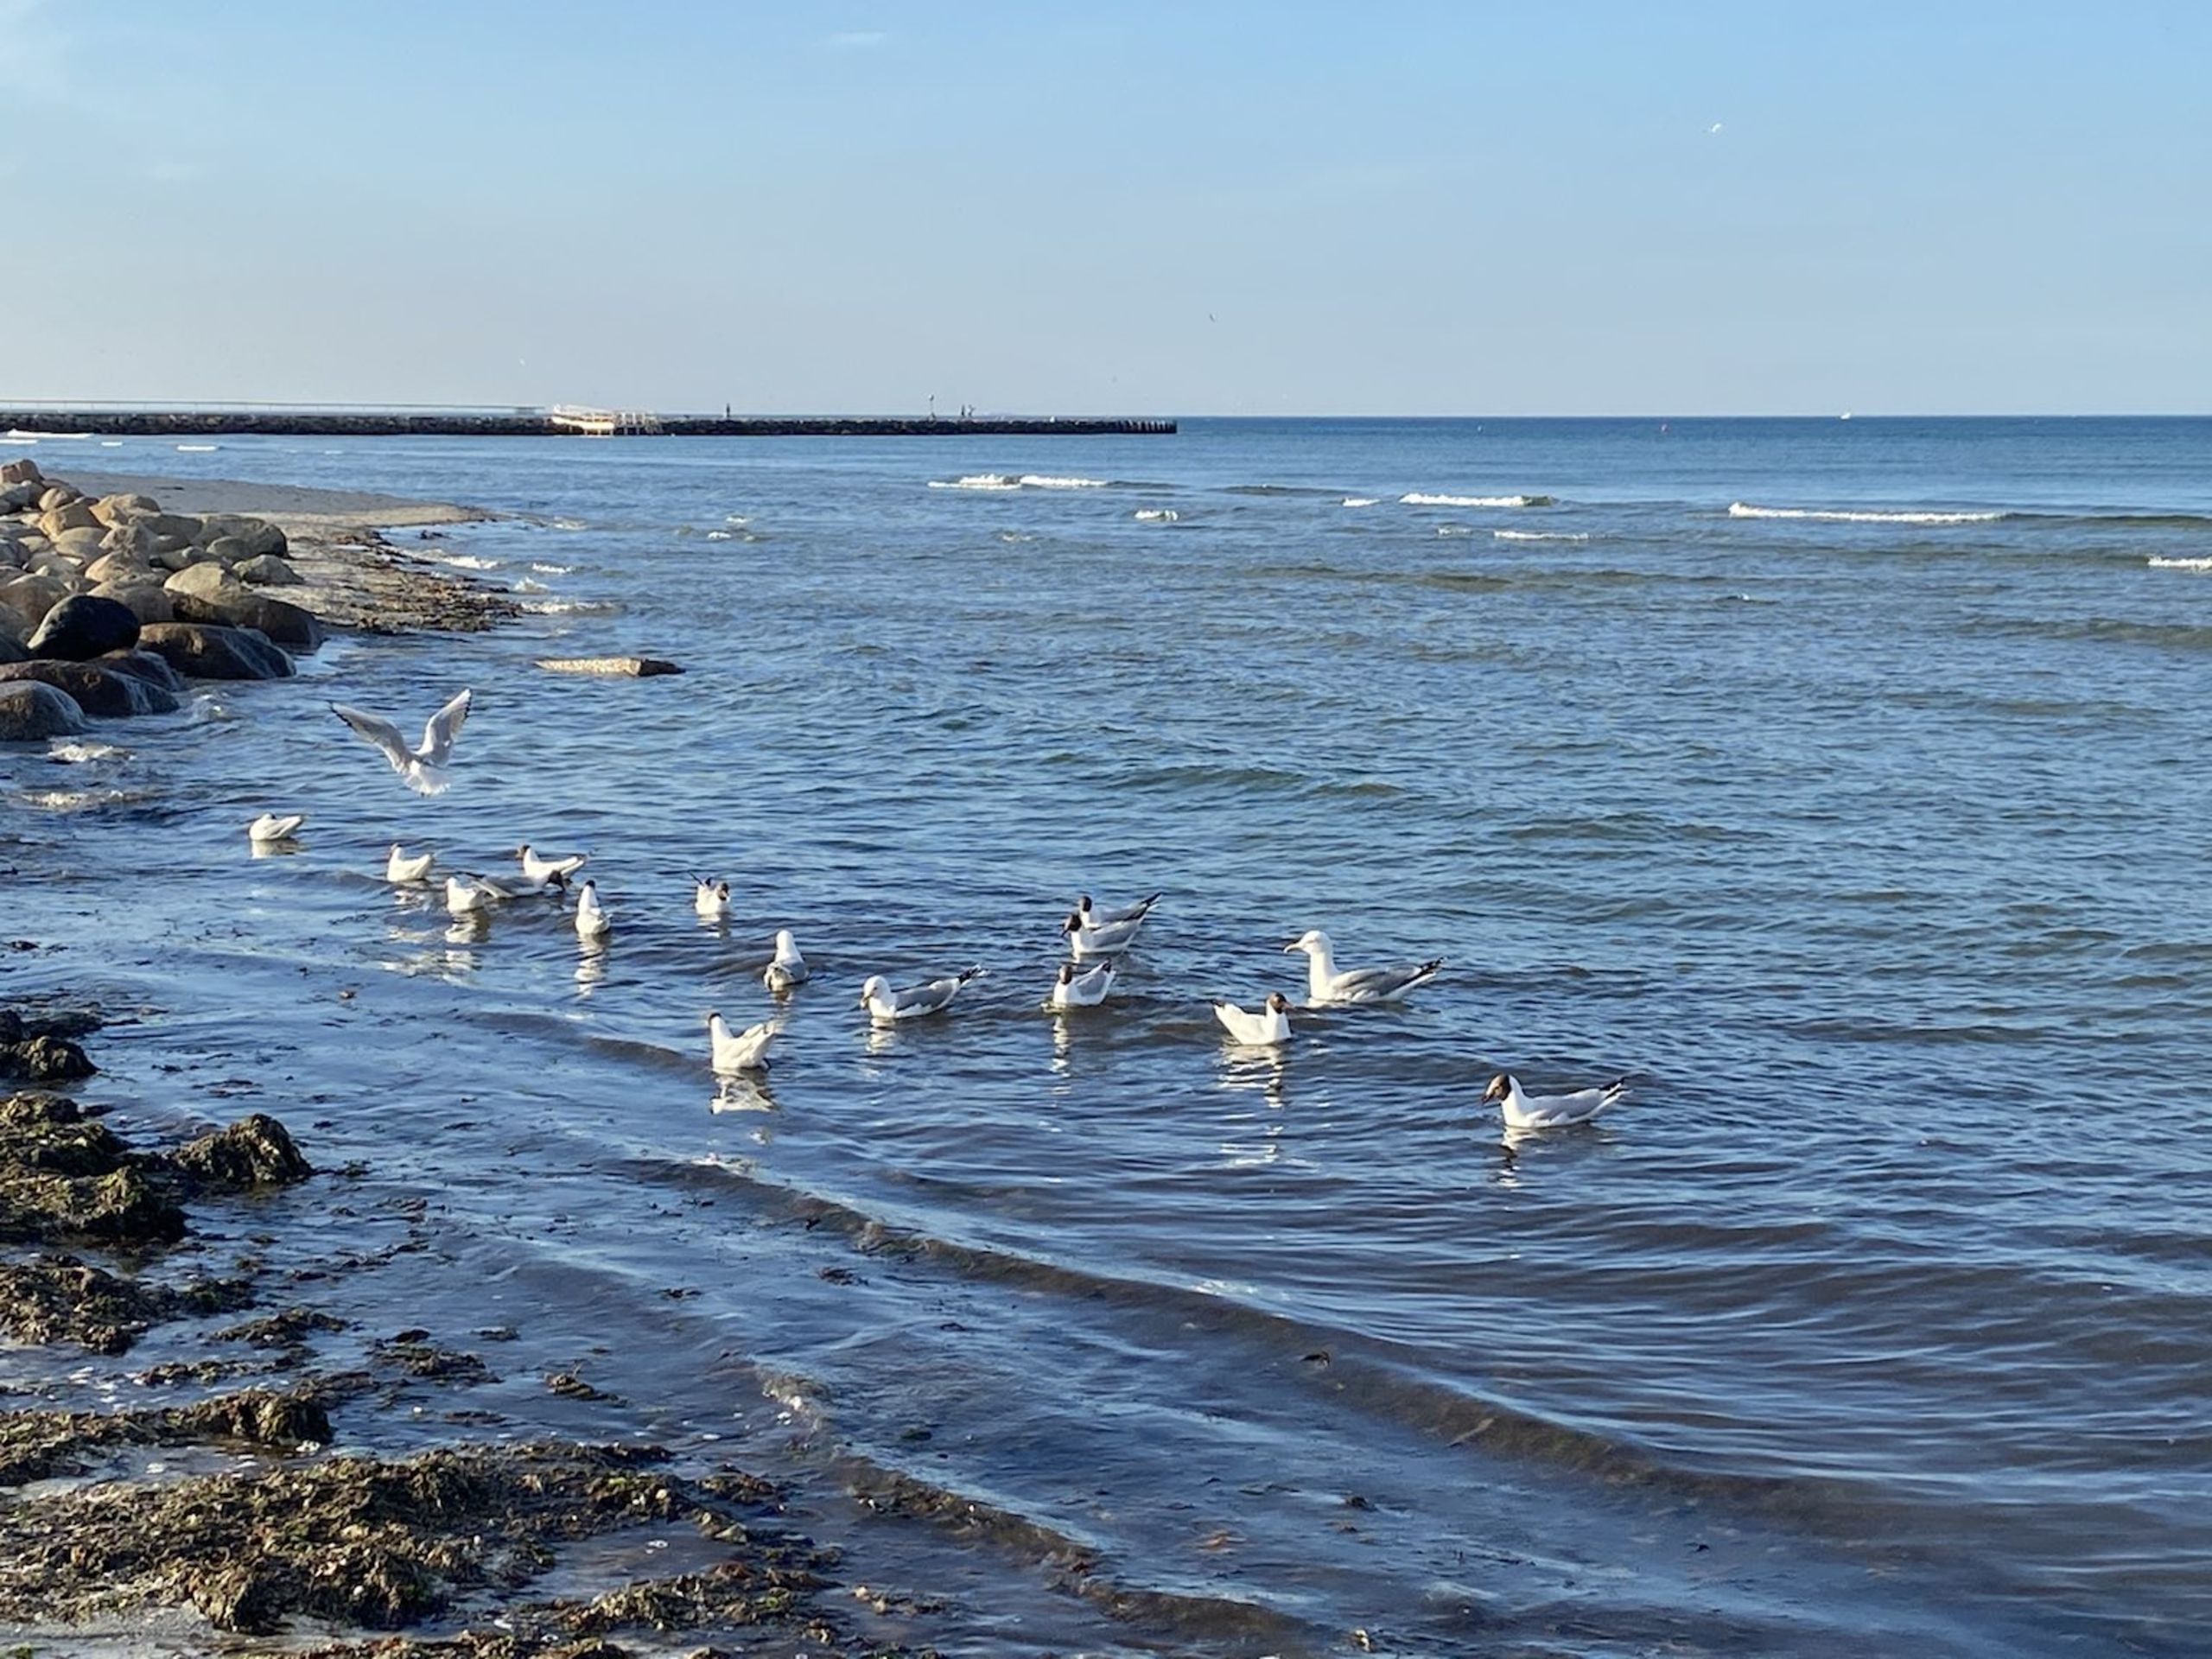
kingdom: Animalia
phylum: Chordata
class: Aves
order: Charadriiformes
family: Laridae
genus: Chroicocephalus
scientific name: Chroicocephalus ridibundus
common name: Hættemåge
